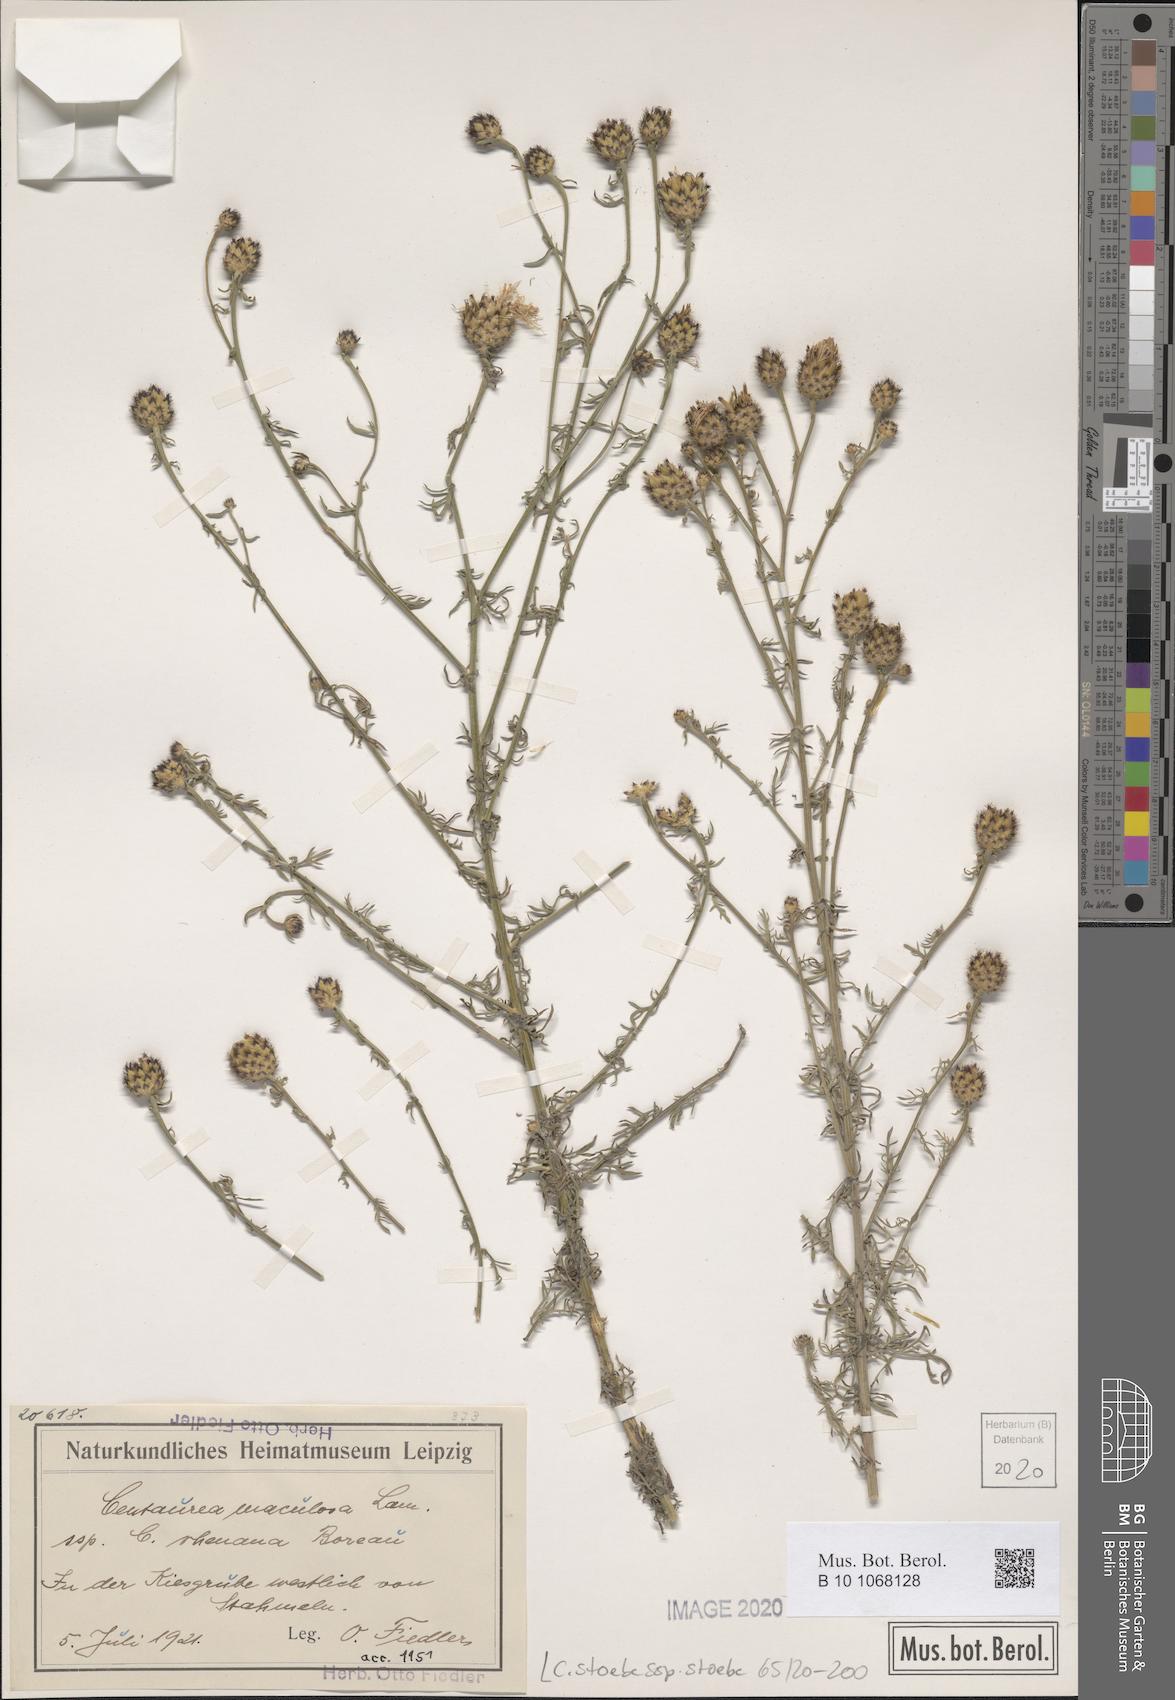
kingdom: Plantae
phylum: Tracheophyta
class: Magnoliopsida
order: Asterales
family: Asteraceae
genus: Centaurea
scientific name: Centaurea stoebe
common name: Spotted knapweed
